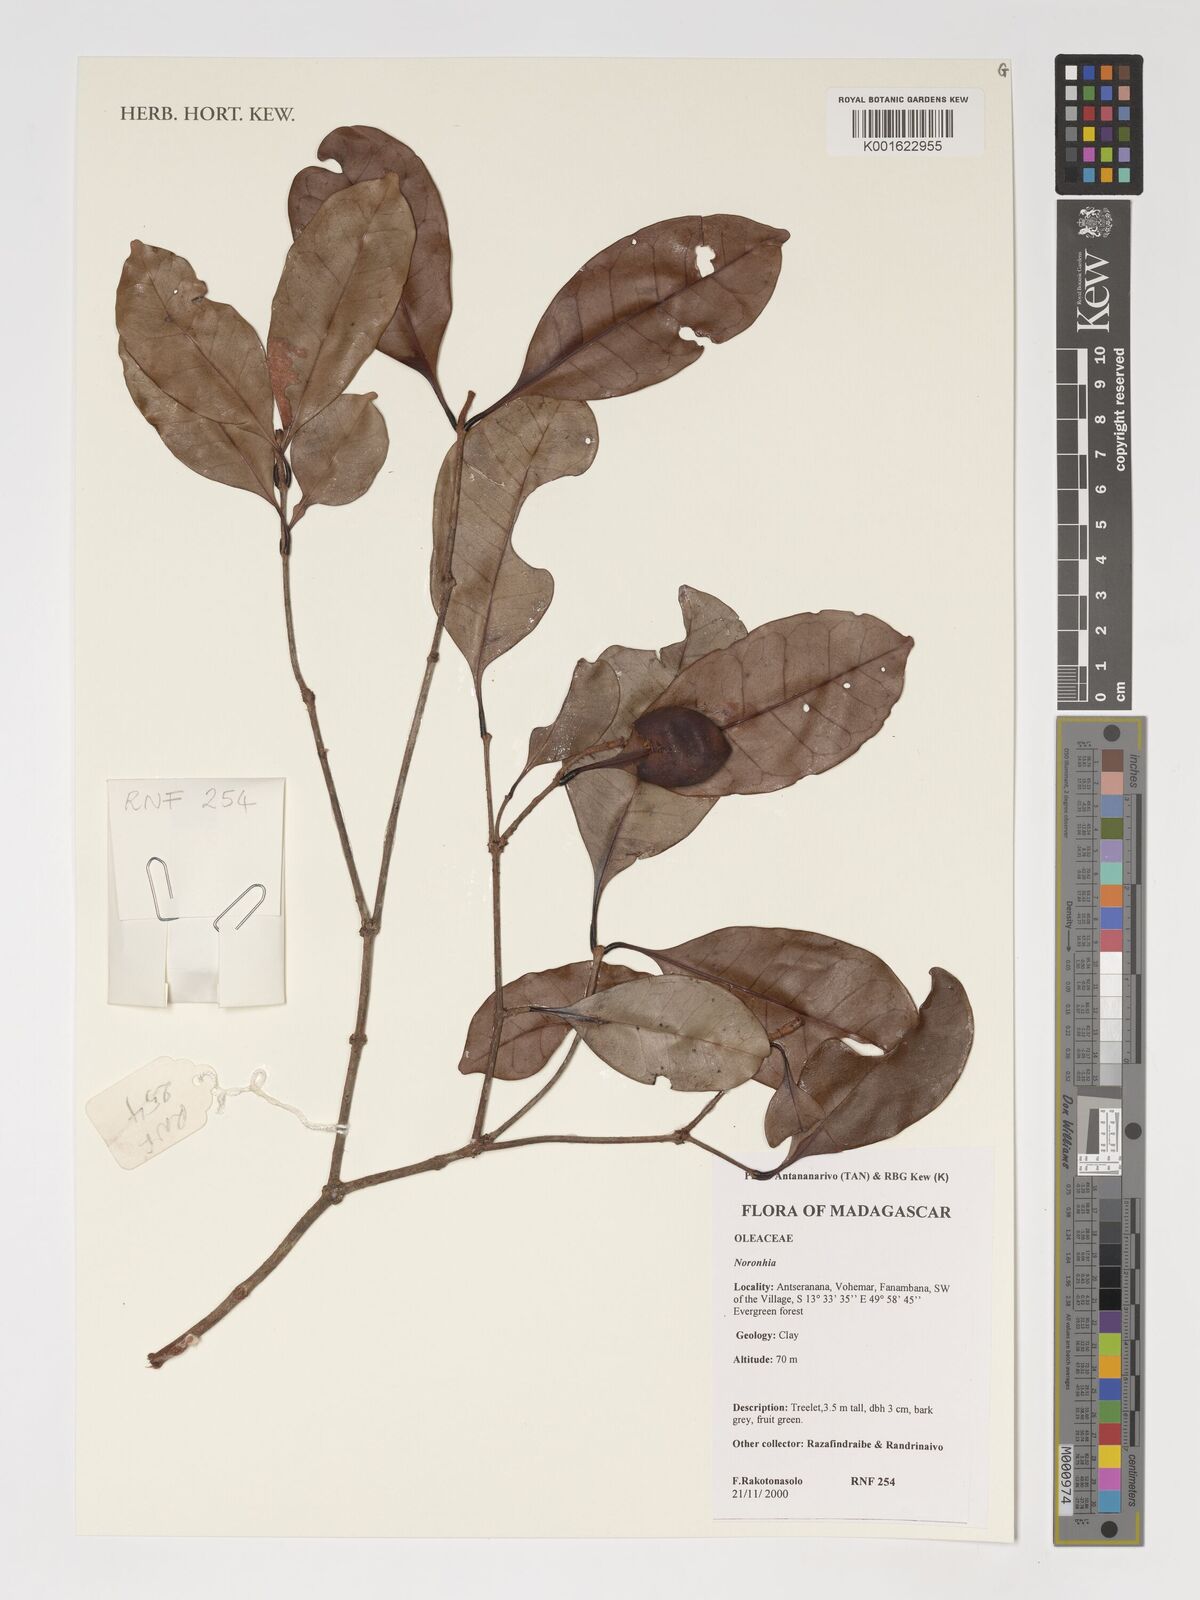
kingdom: Plantae
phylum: Tracheophyta
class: Magnoliopsida
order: Lamiales
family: Oleaceae
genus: Noronhia
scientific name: Noronhia
